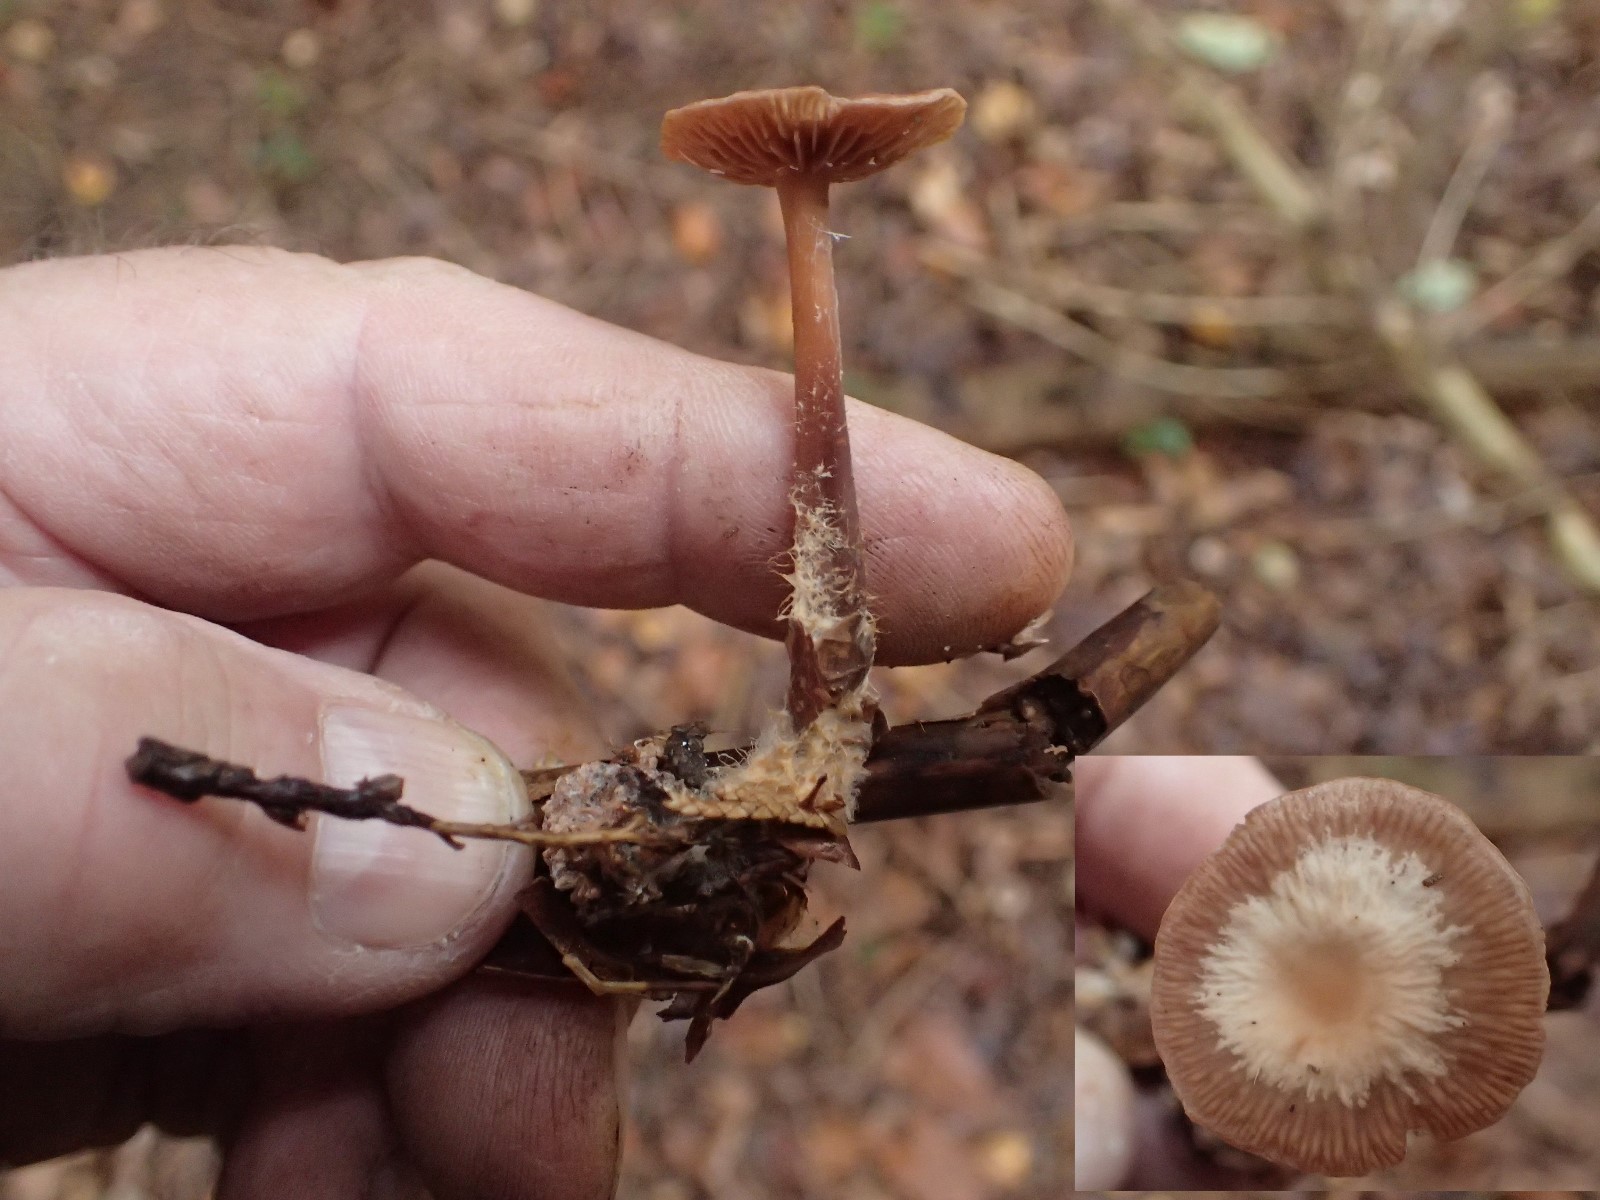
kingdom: Fungi
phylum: Basidiomycota
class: Agaricomycetes
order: Agaricales
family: Omphalotaceae
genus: Gymnopus
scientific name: Gymnopus
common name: fladhat
